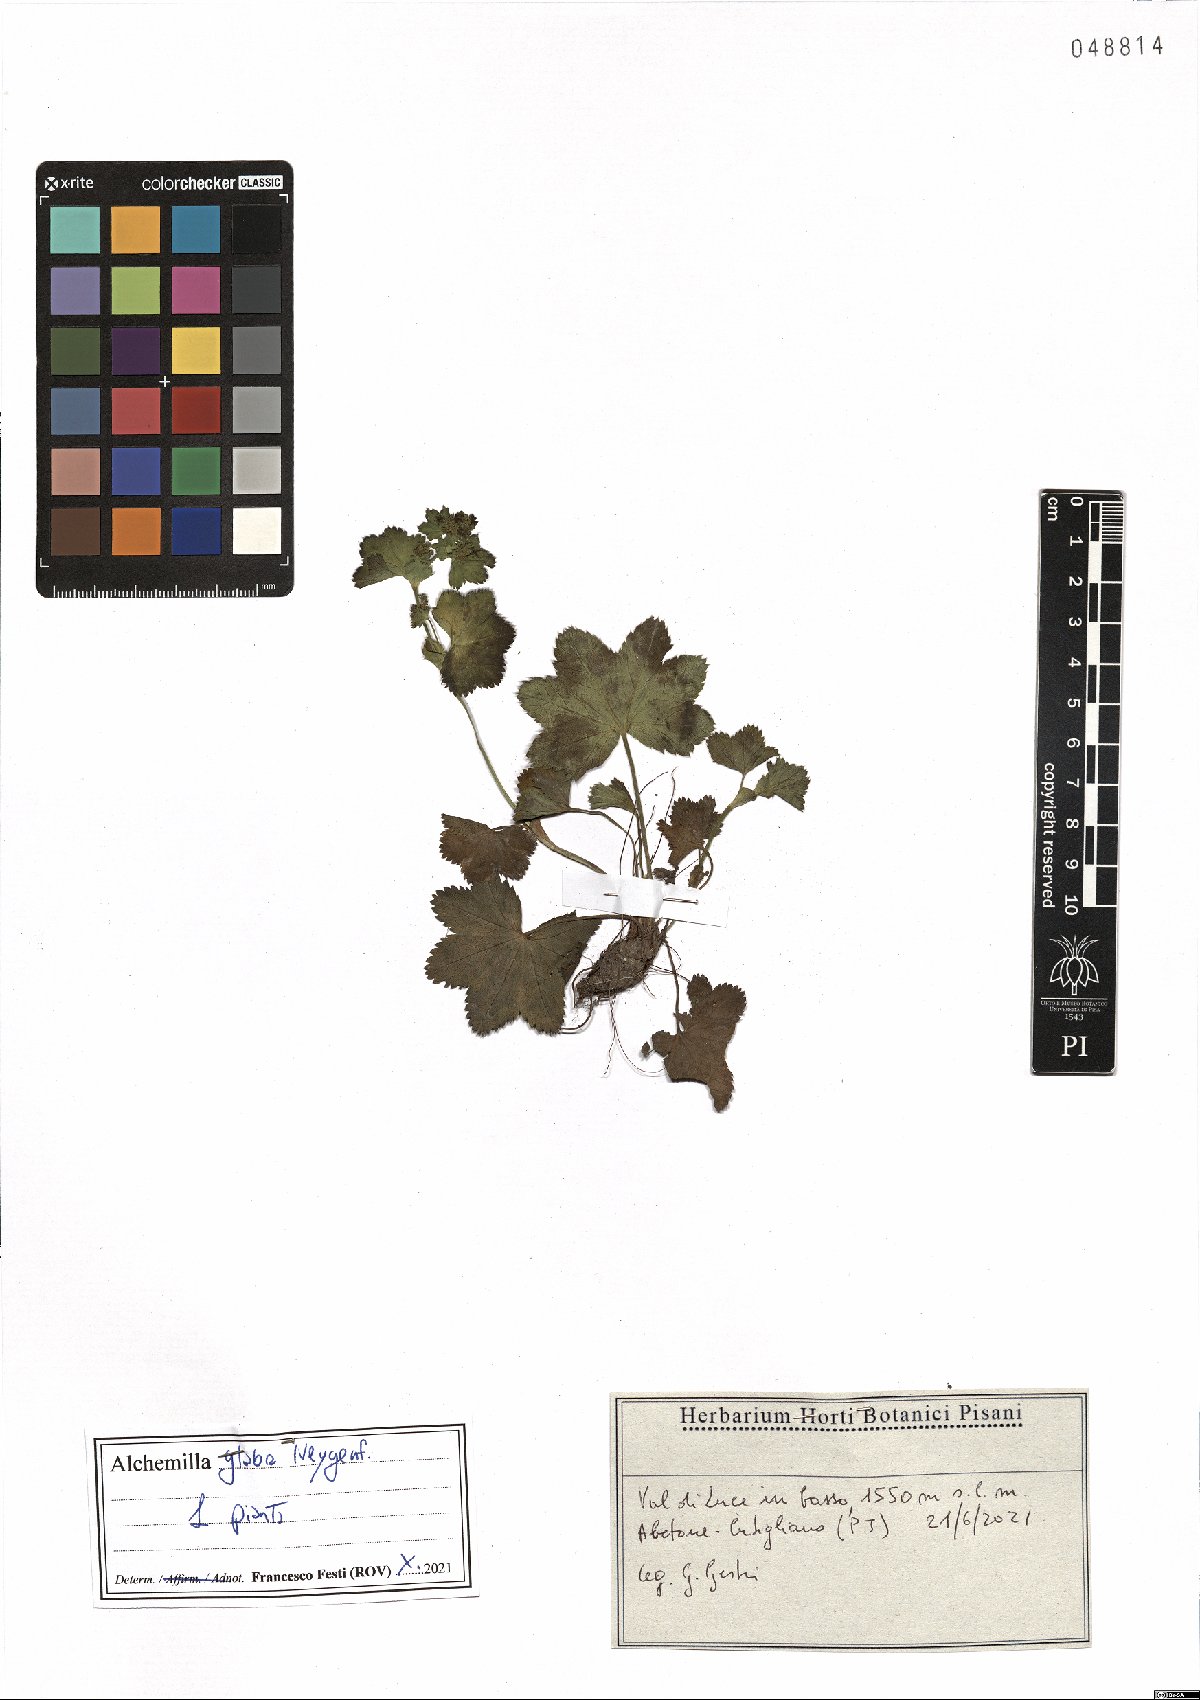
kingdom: Plantae
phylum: Tracheophyta
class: Magnoliopsida
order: Rosales
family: Rosaceae
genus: Alchemilla
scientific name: Alchemilla glabra
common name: Smooth lady's-mantle
